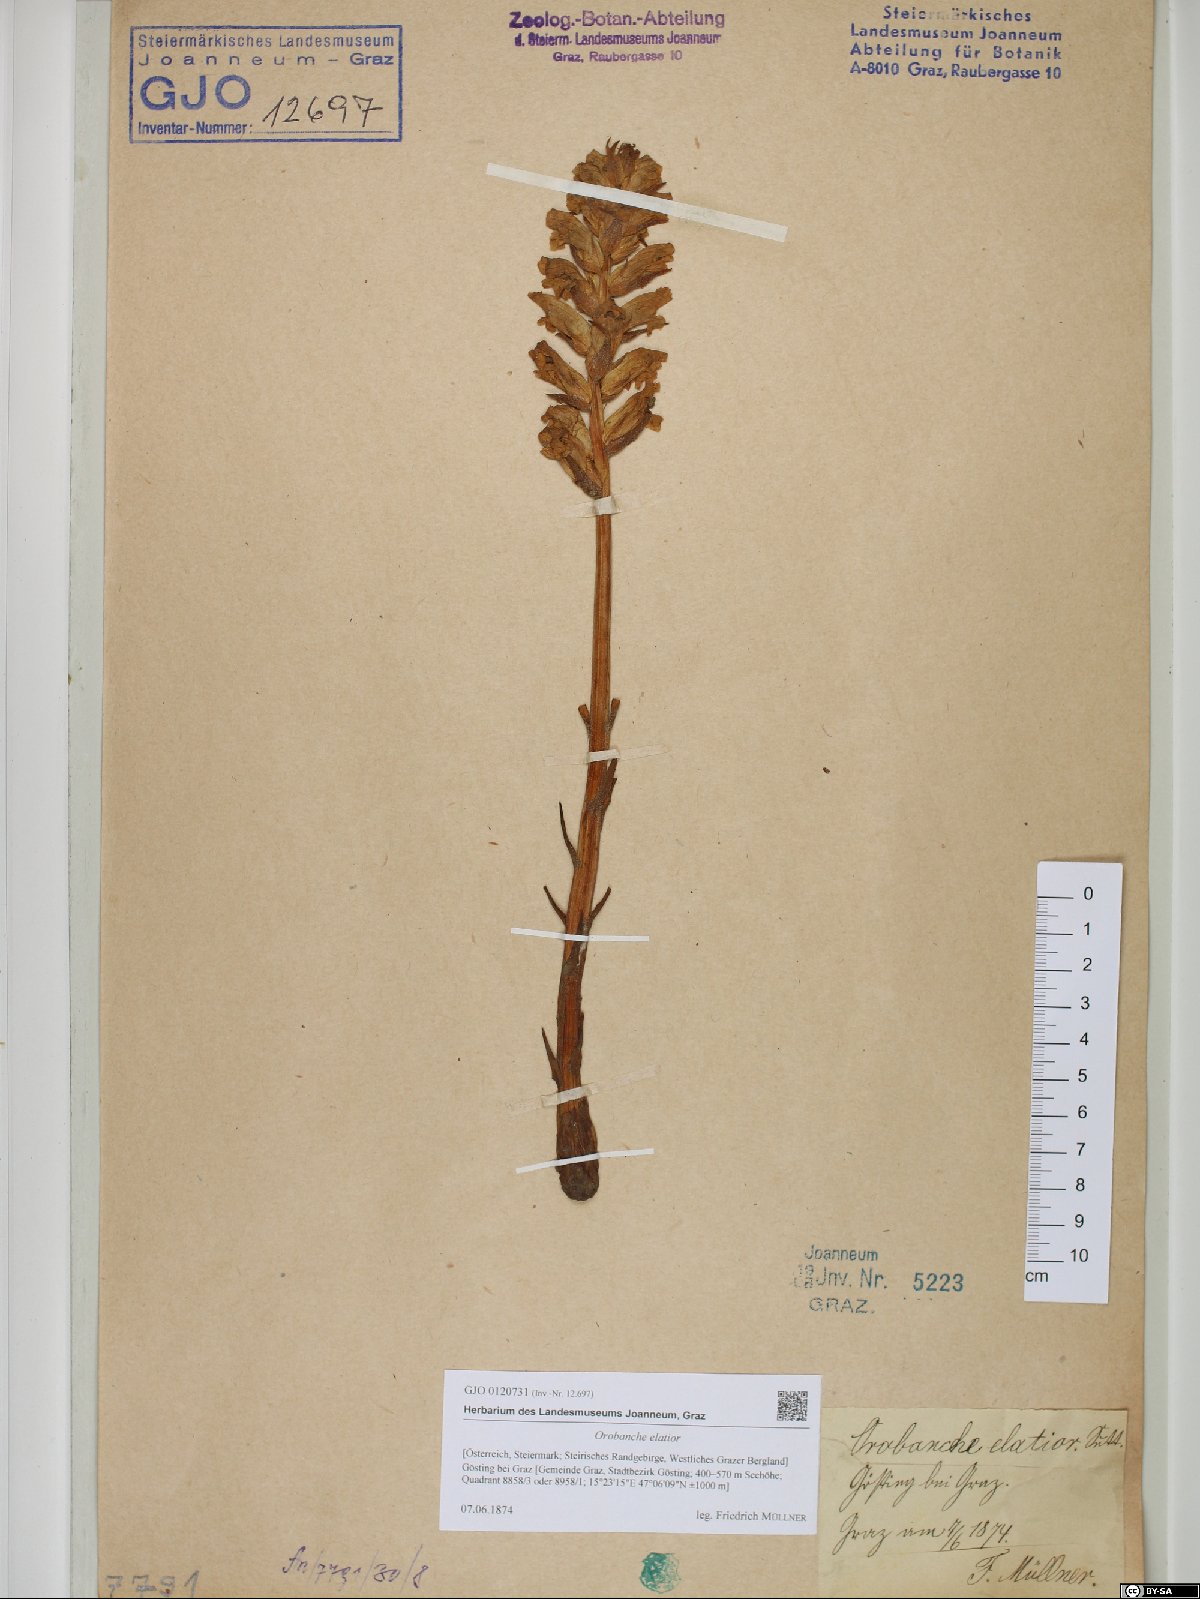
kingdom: Plantae
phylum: Tracheophyta
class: Magnoliopsida
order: Lamiales
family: Orobanchaceae
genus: Orobanche
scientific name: Orobanche elatior
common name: Knapweed broomrape
